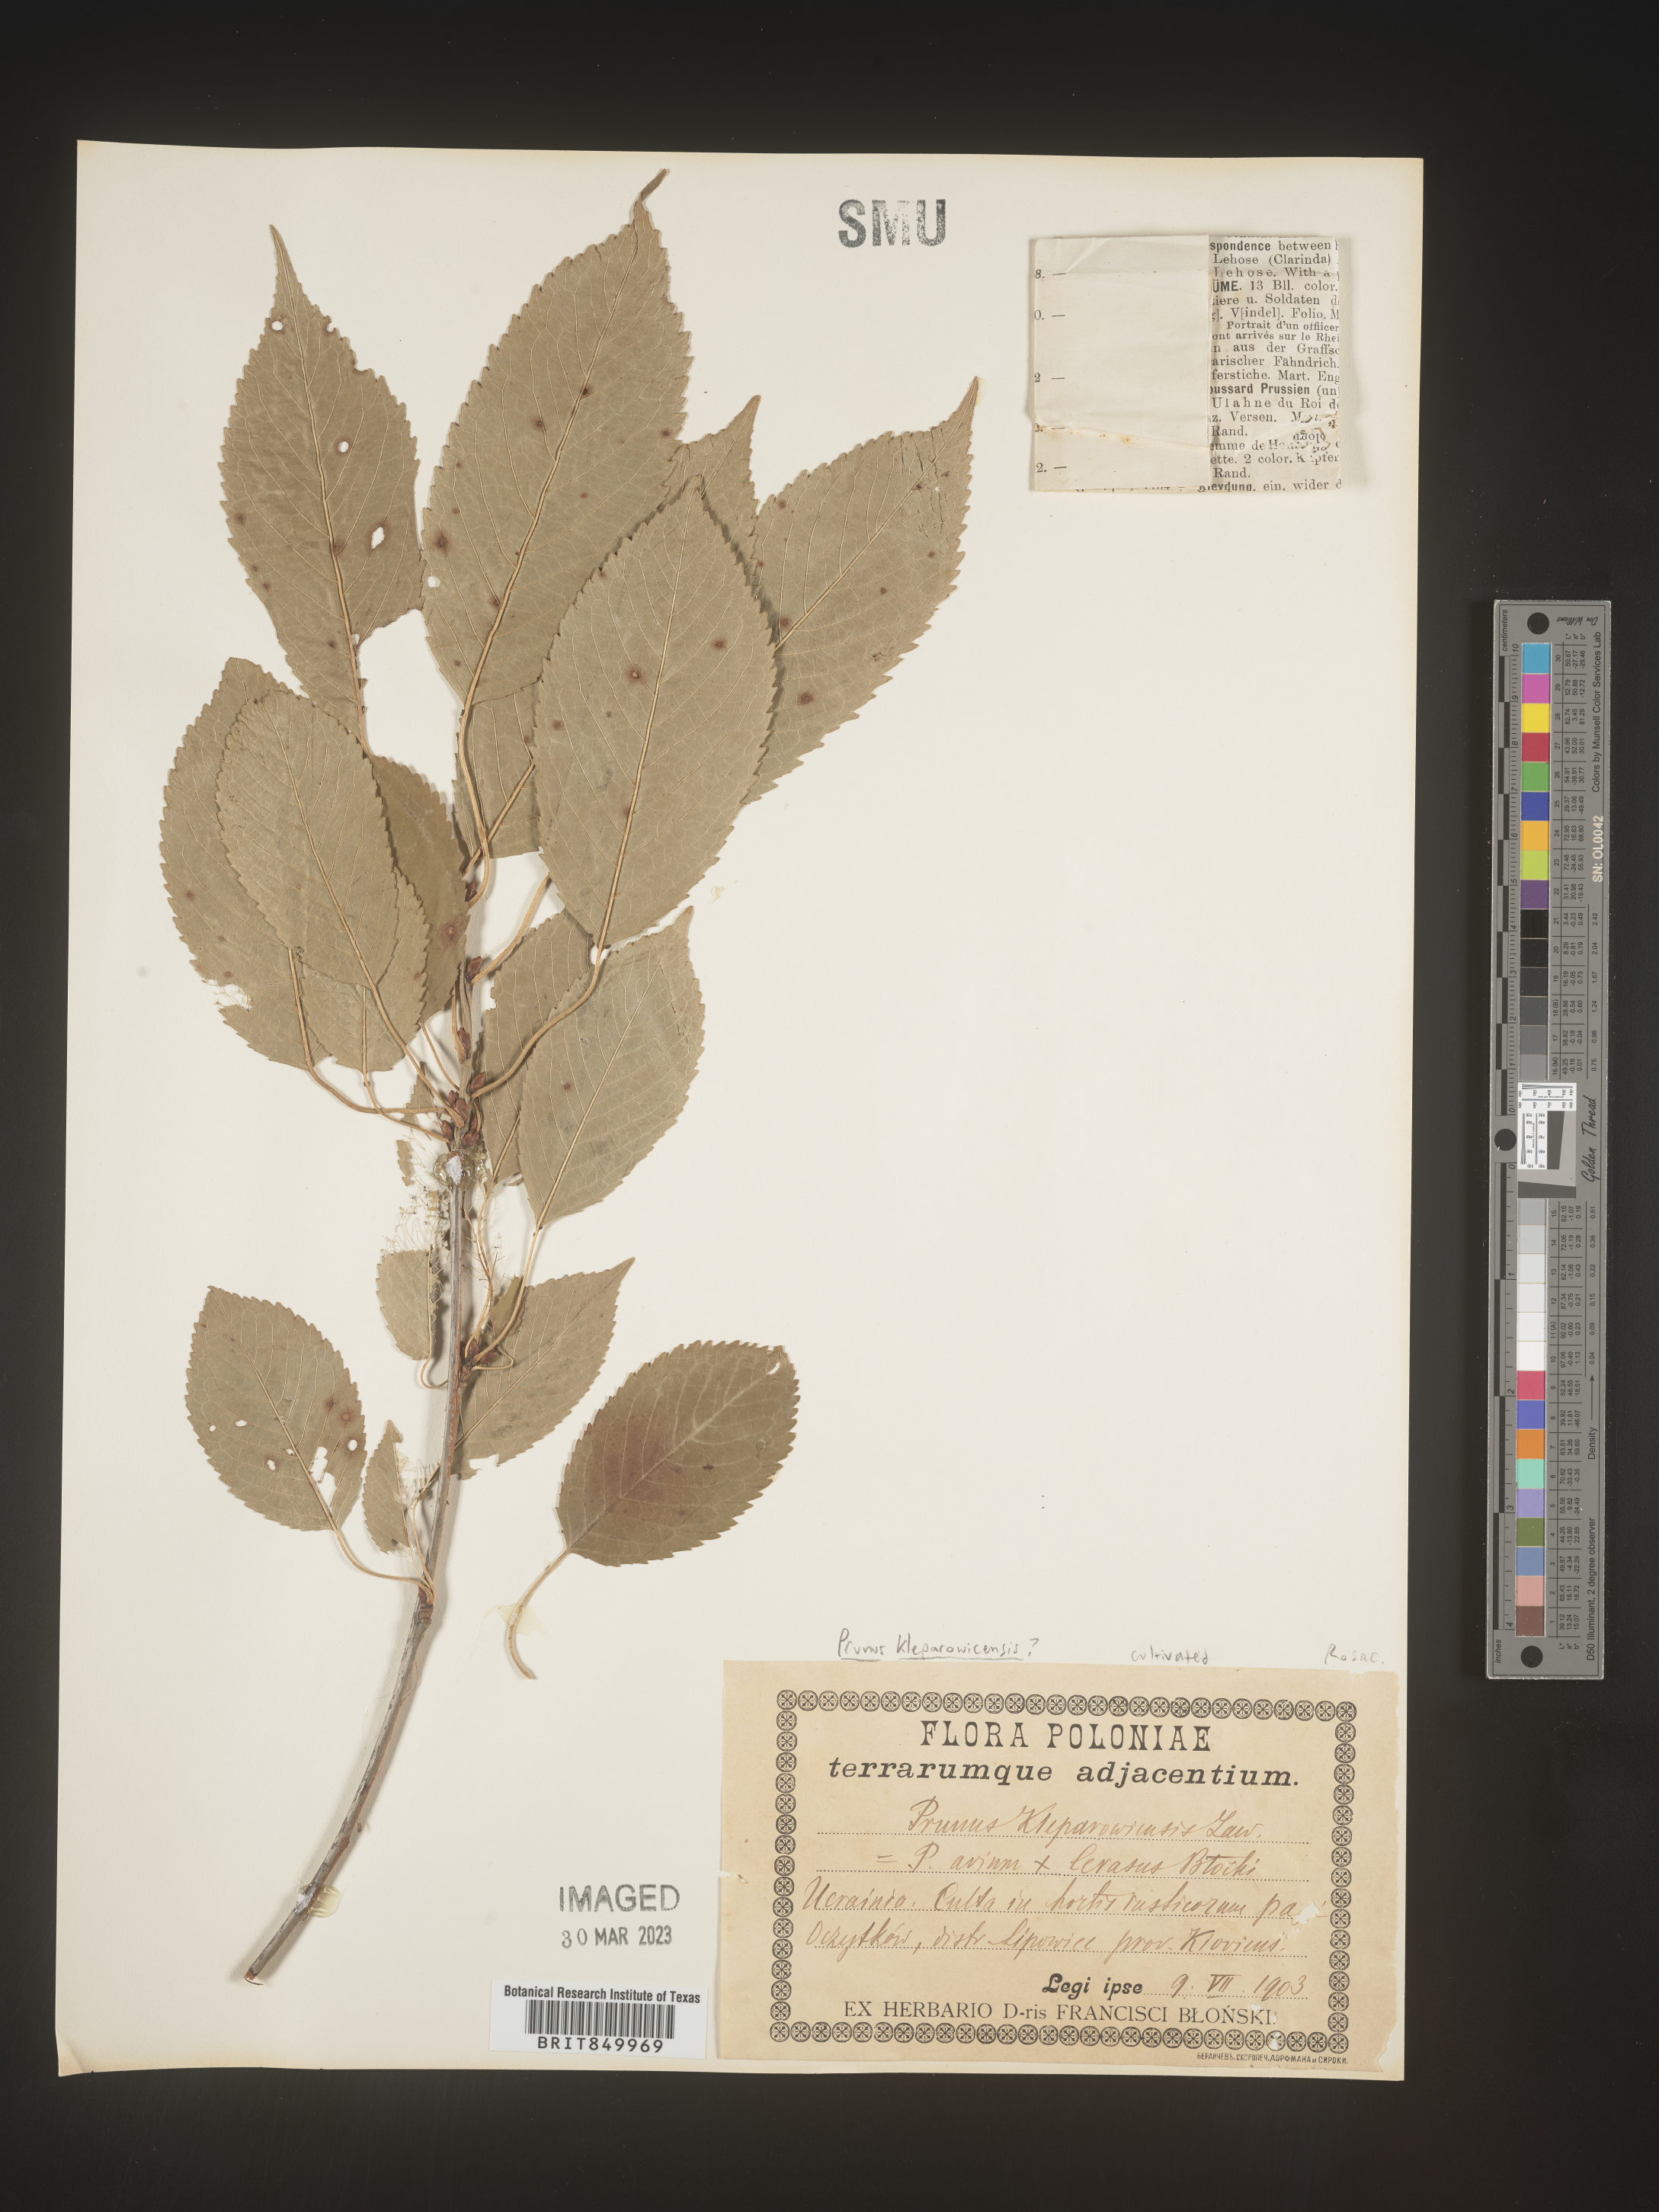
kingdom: Plantae
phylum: Tracheophyta
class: Magnoliopsida
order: Rosales
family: Rosaceae
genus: Prunus
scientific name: Prunus
